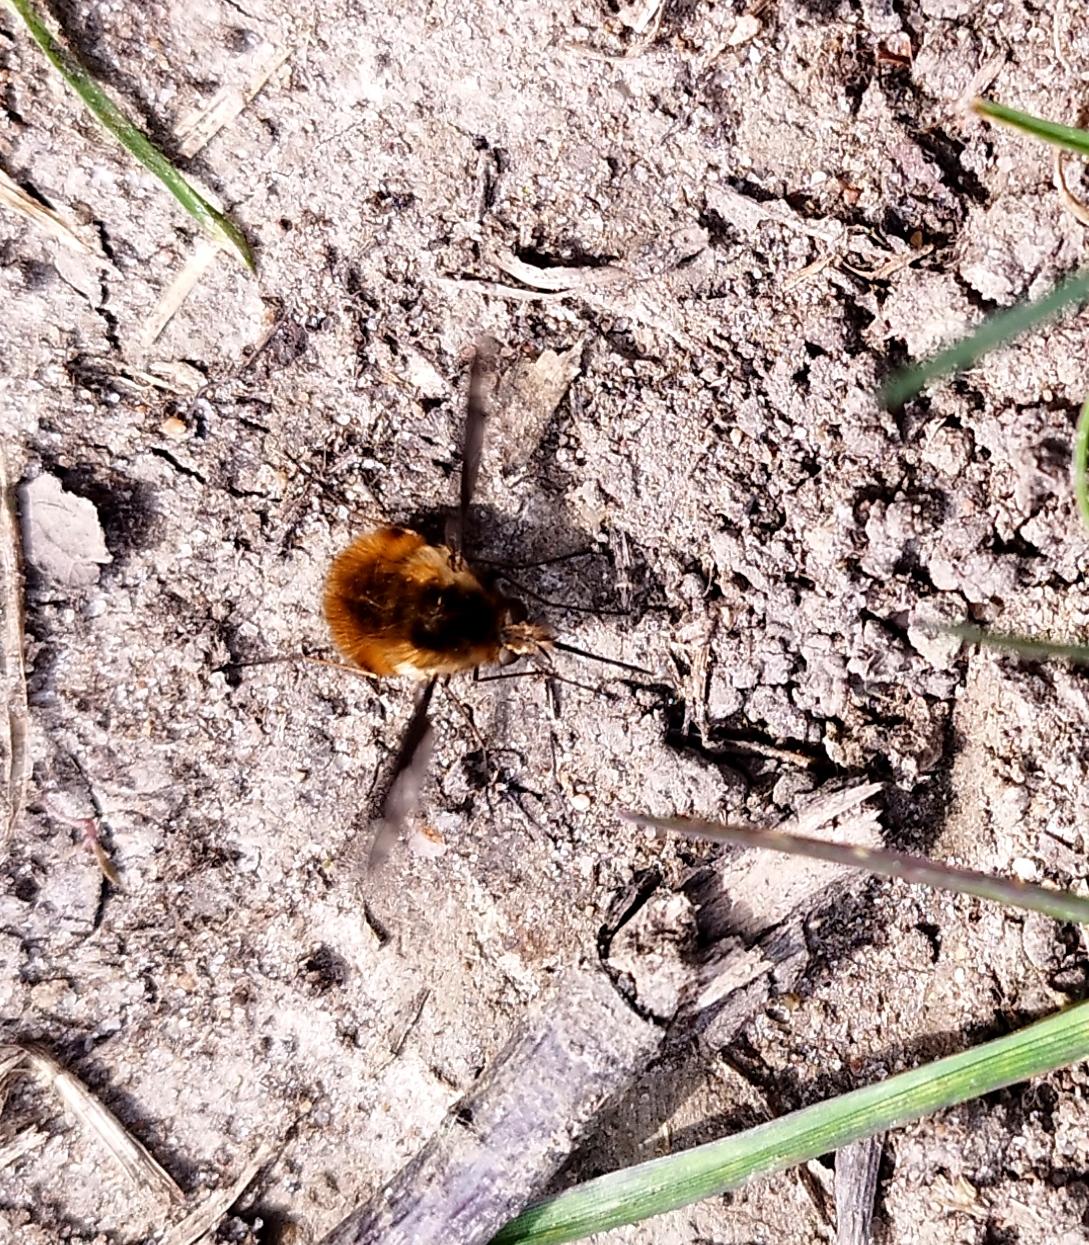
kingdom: Animalia
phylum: Arthropoda
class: Insecta
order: Diptera
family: Bombyliidae
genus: Bombylius
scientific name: Bombylius major
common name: Stor humleflue
